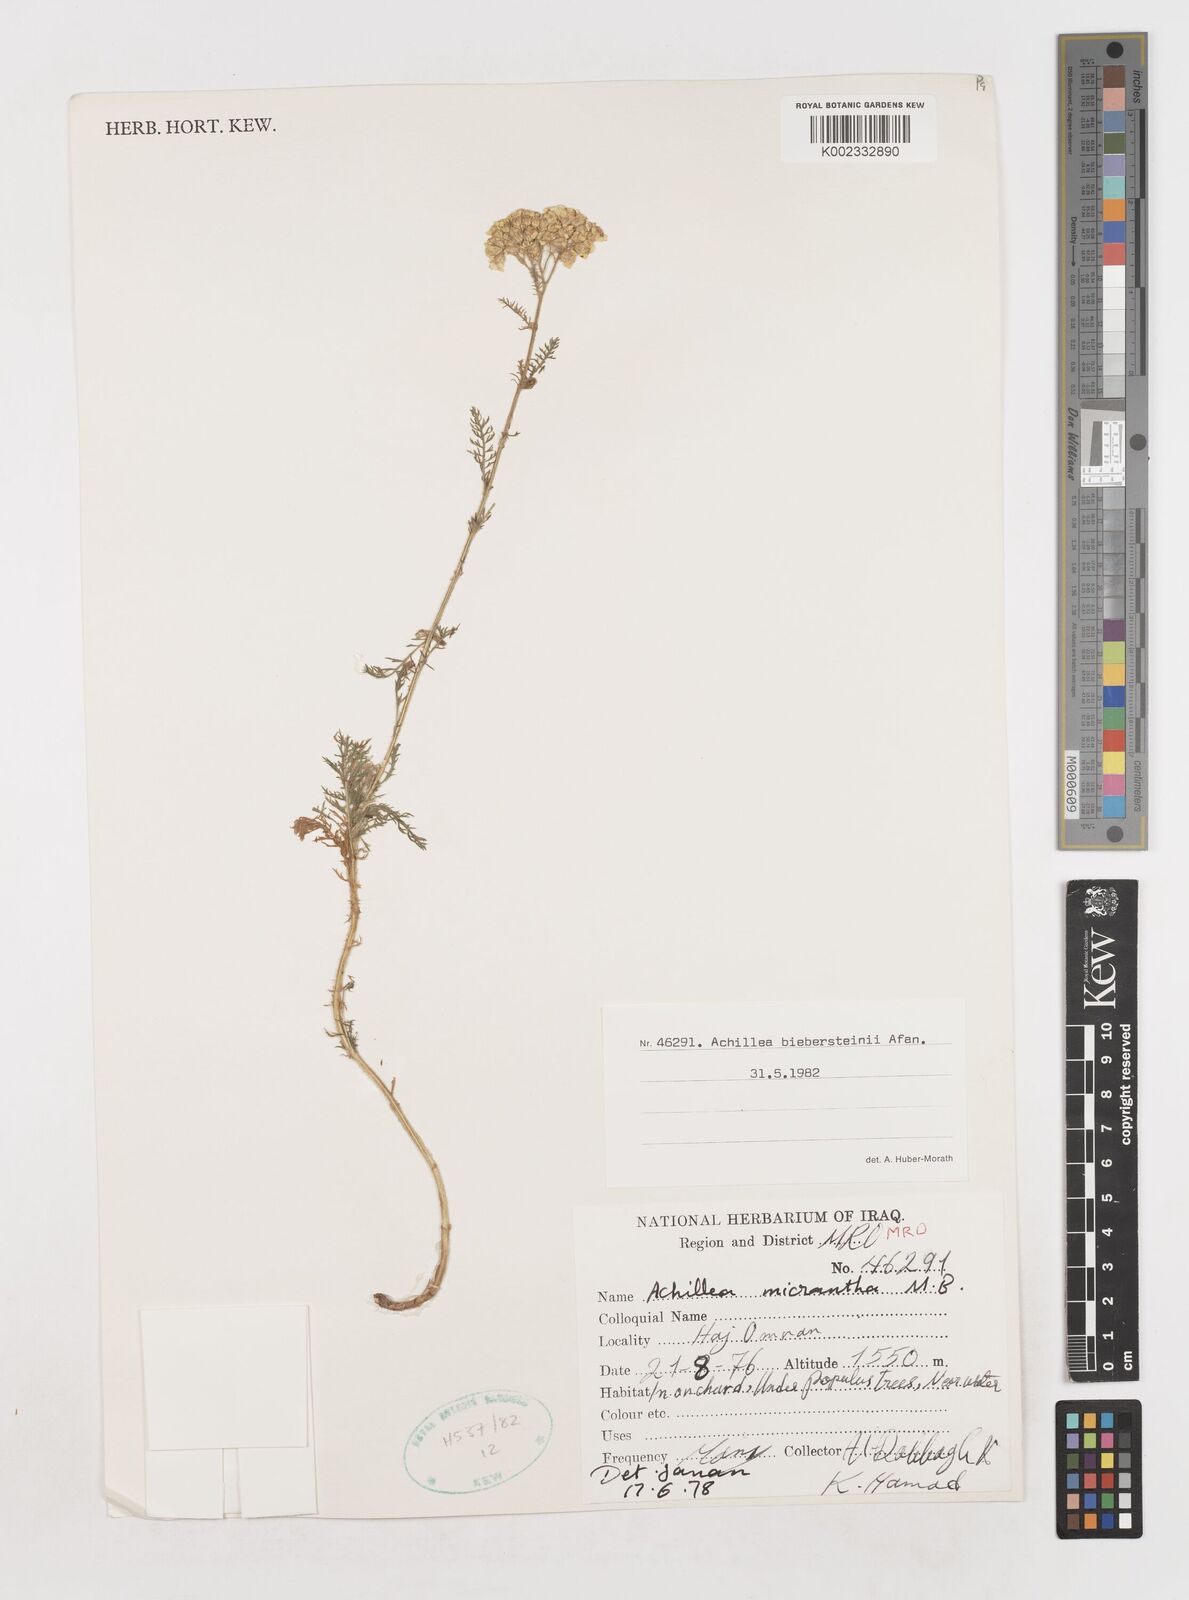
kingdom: Plantae
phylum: Tracheophyta
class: Magnoliopsida
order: Asterales
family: Asteraceae
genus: Achillea
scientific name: Achillea arabica
